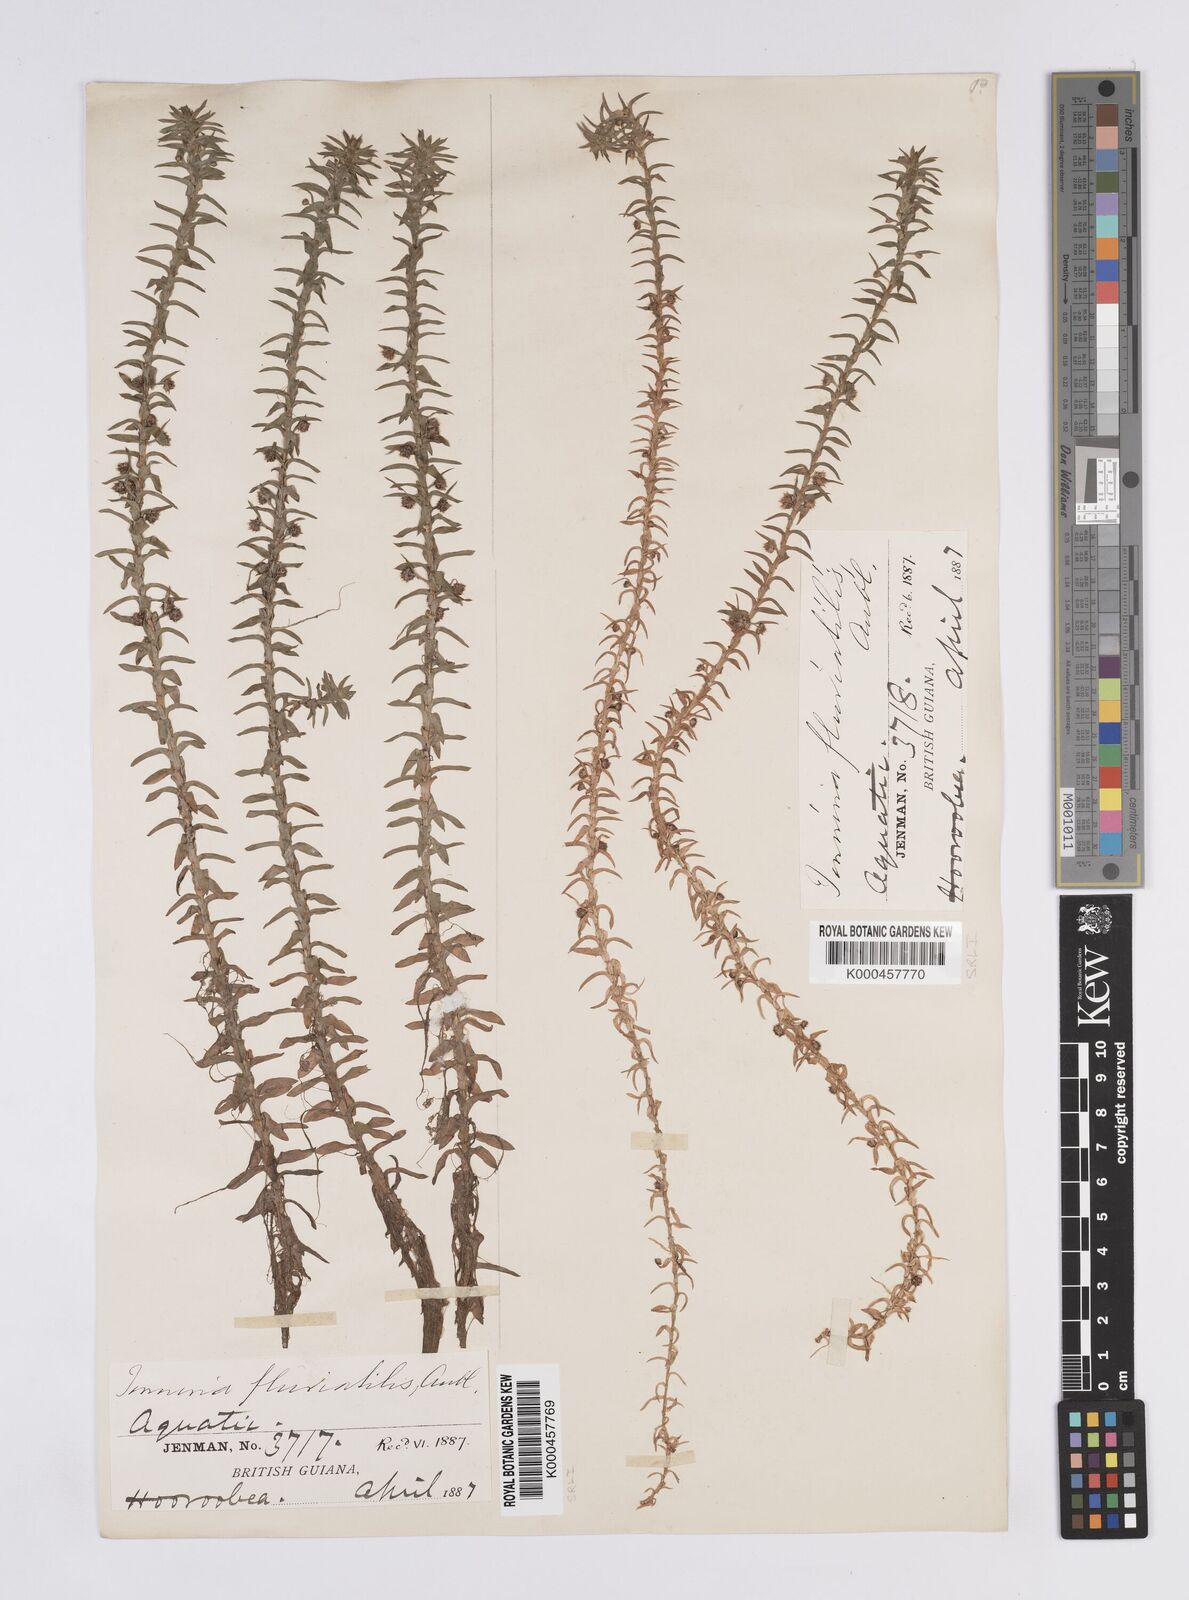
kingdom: Plantae
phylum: Tracheophyta
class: Liliopsida
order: Poales
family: Eriocaulaceae
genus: Paepalanthus
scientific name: Paepalanthus fluviatilis
